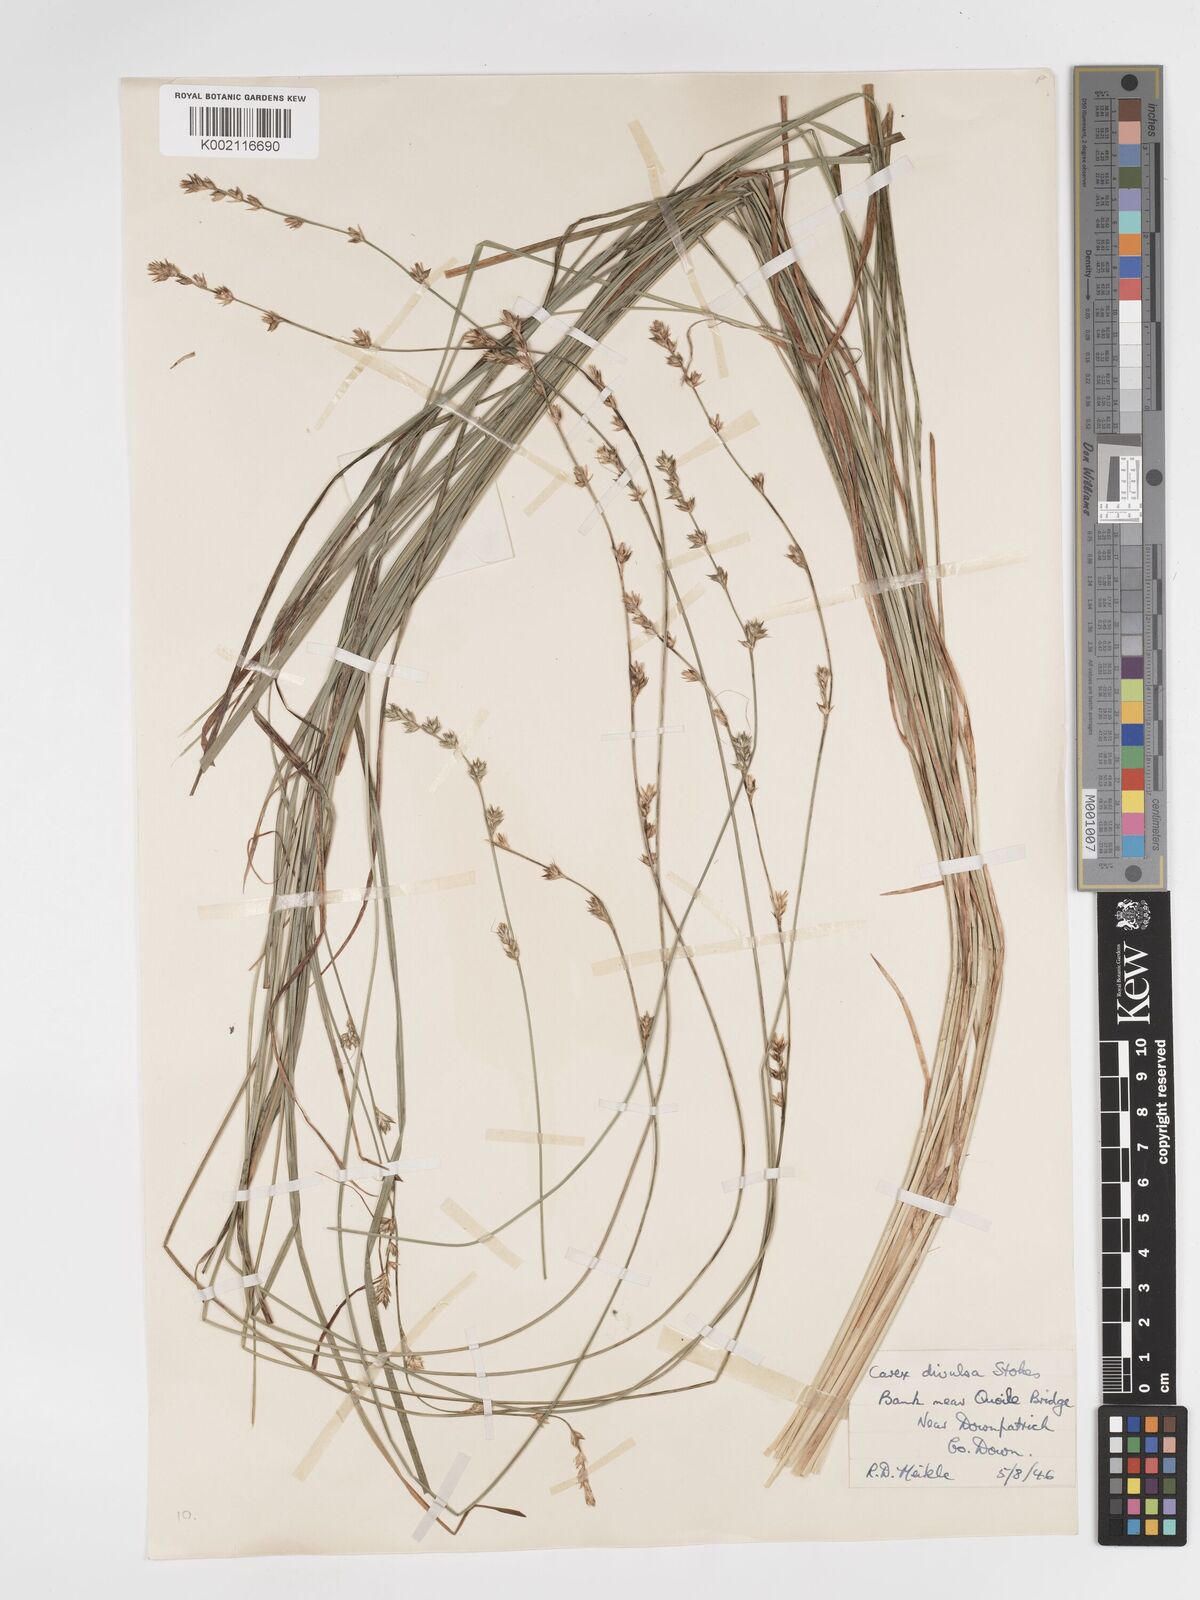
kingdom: Plantae
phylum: Tracheophyta
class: Liliopsida
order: Poales
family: Cyperaceae
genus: Carex
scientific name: Carex divulsa
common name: Grassland sedge
